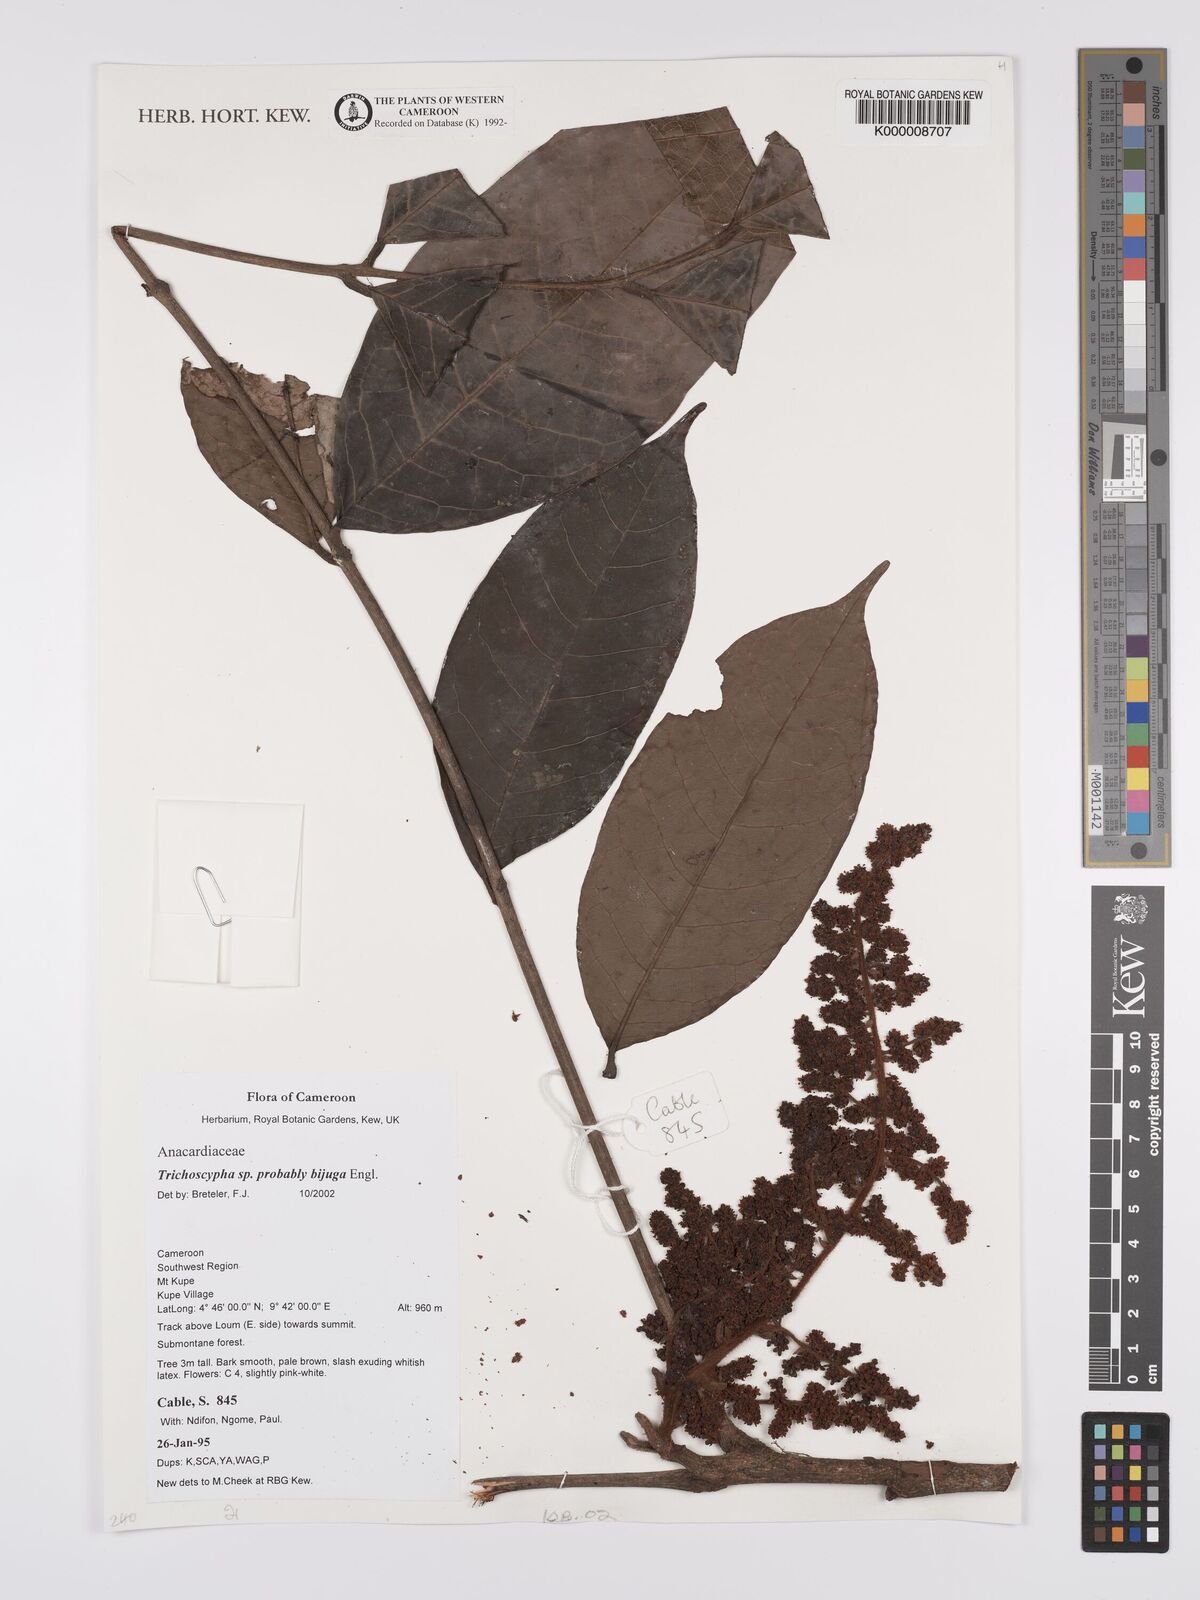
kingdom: Plantae
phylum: Tracheophyta
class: Magnoliopsida
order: Sapindales
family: Anacardiaceae
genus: Trichoscypha
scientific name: Trichoscypha
